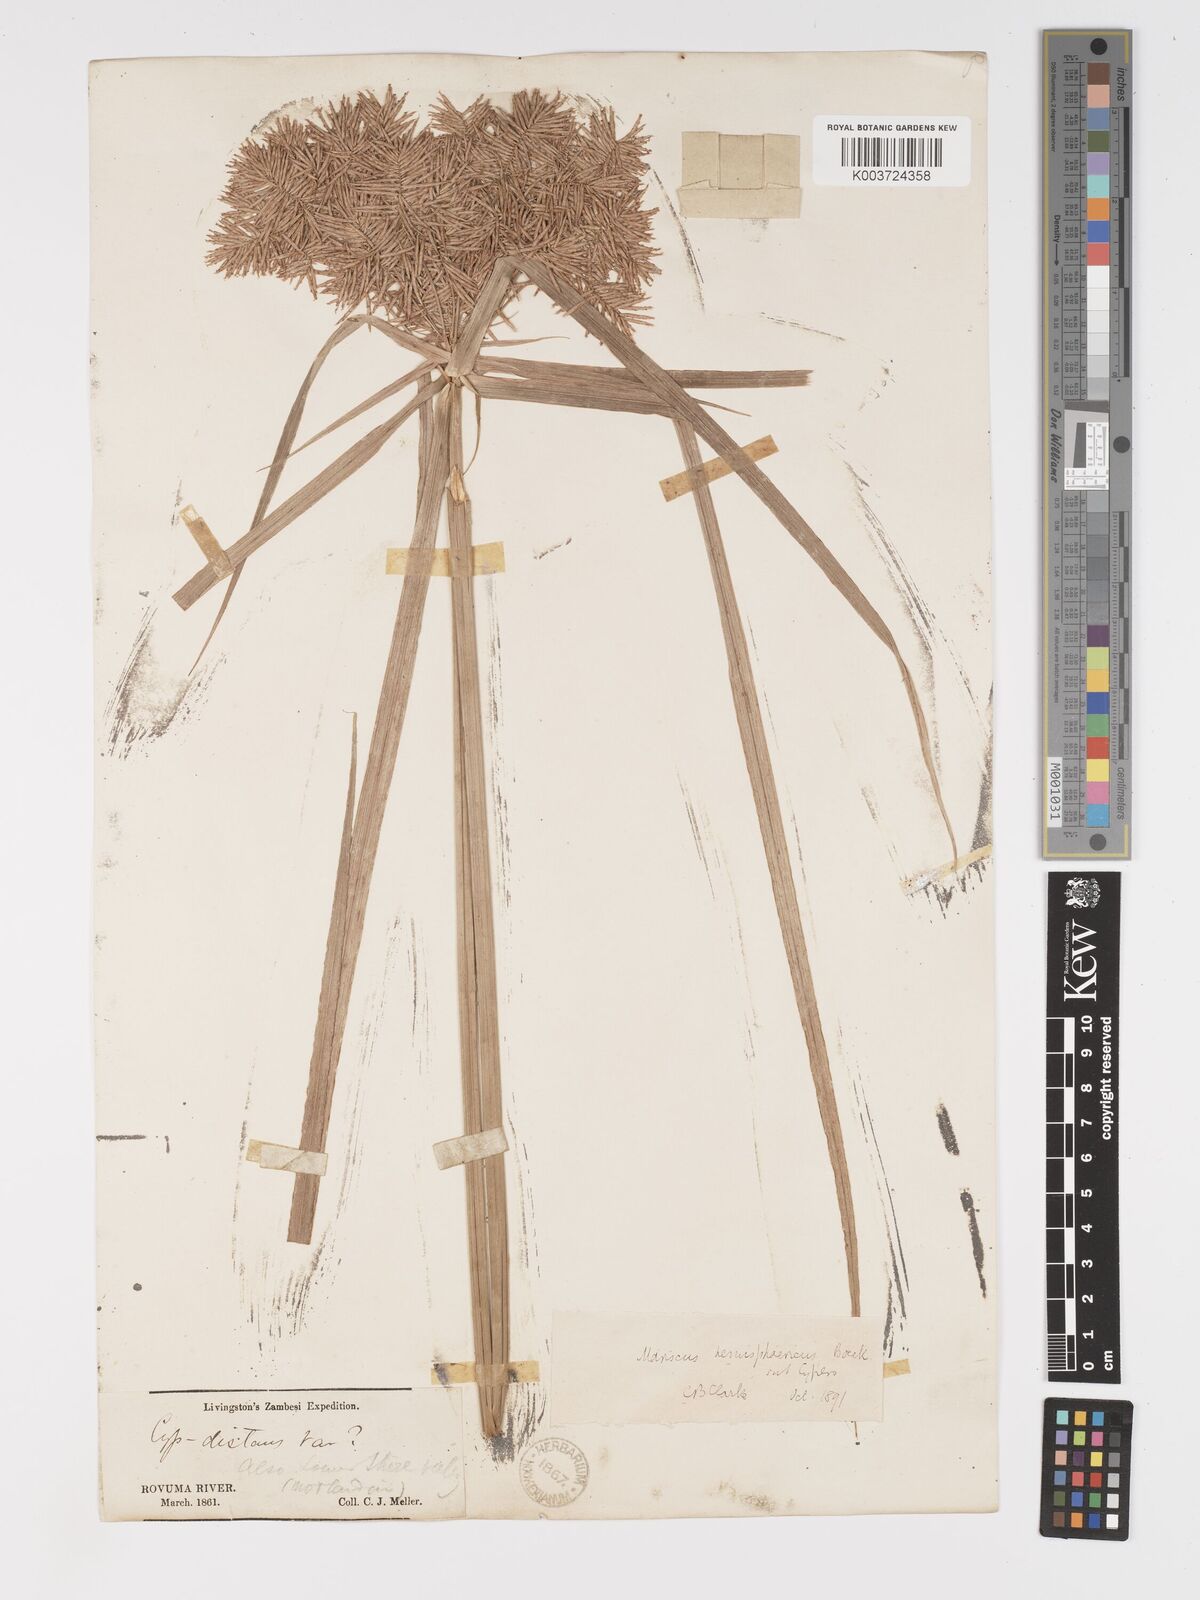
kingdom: Plantae
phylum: Tracheophyta
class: Liliopsida
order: Poales
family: Cyperaceae
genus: Cyperus
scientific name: Cyperus hemisphaericus
